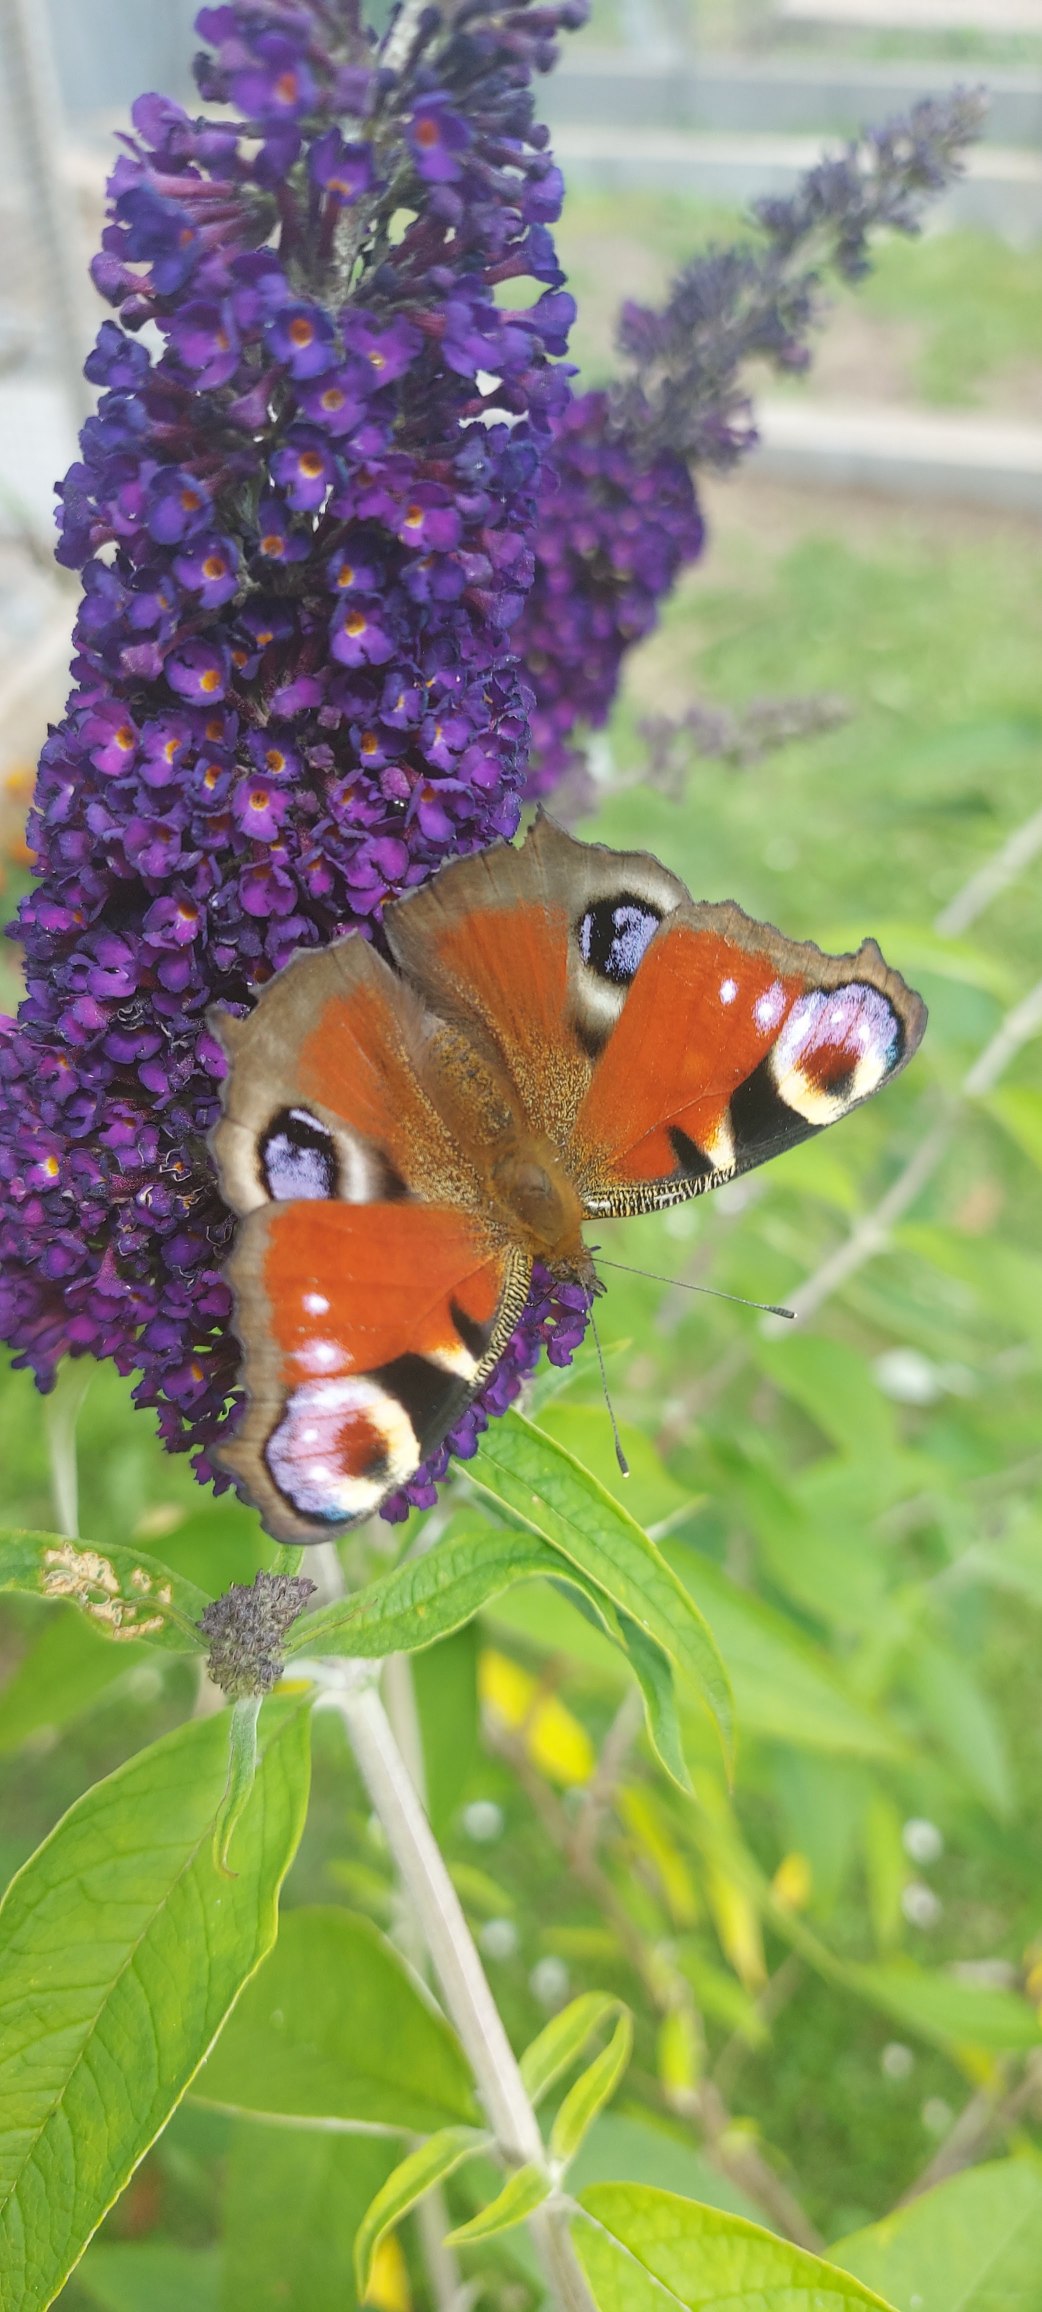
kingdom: Animalia
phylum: Arthropoda
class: Insecta
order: Lepidoptera
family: Nymphalidae
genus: Aglais
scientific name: Aglais io
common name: Dagpåfugleøje
